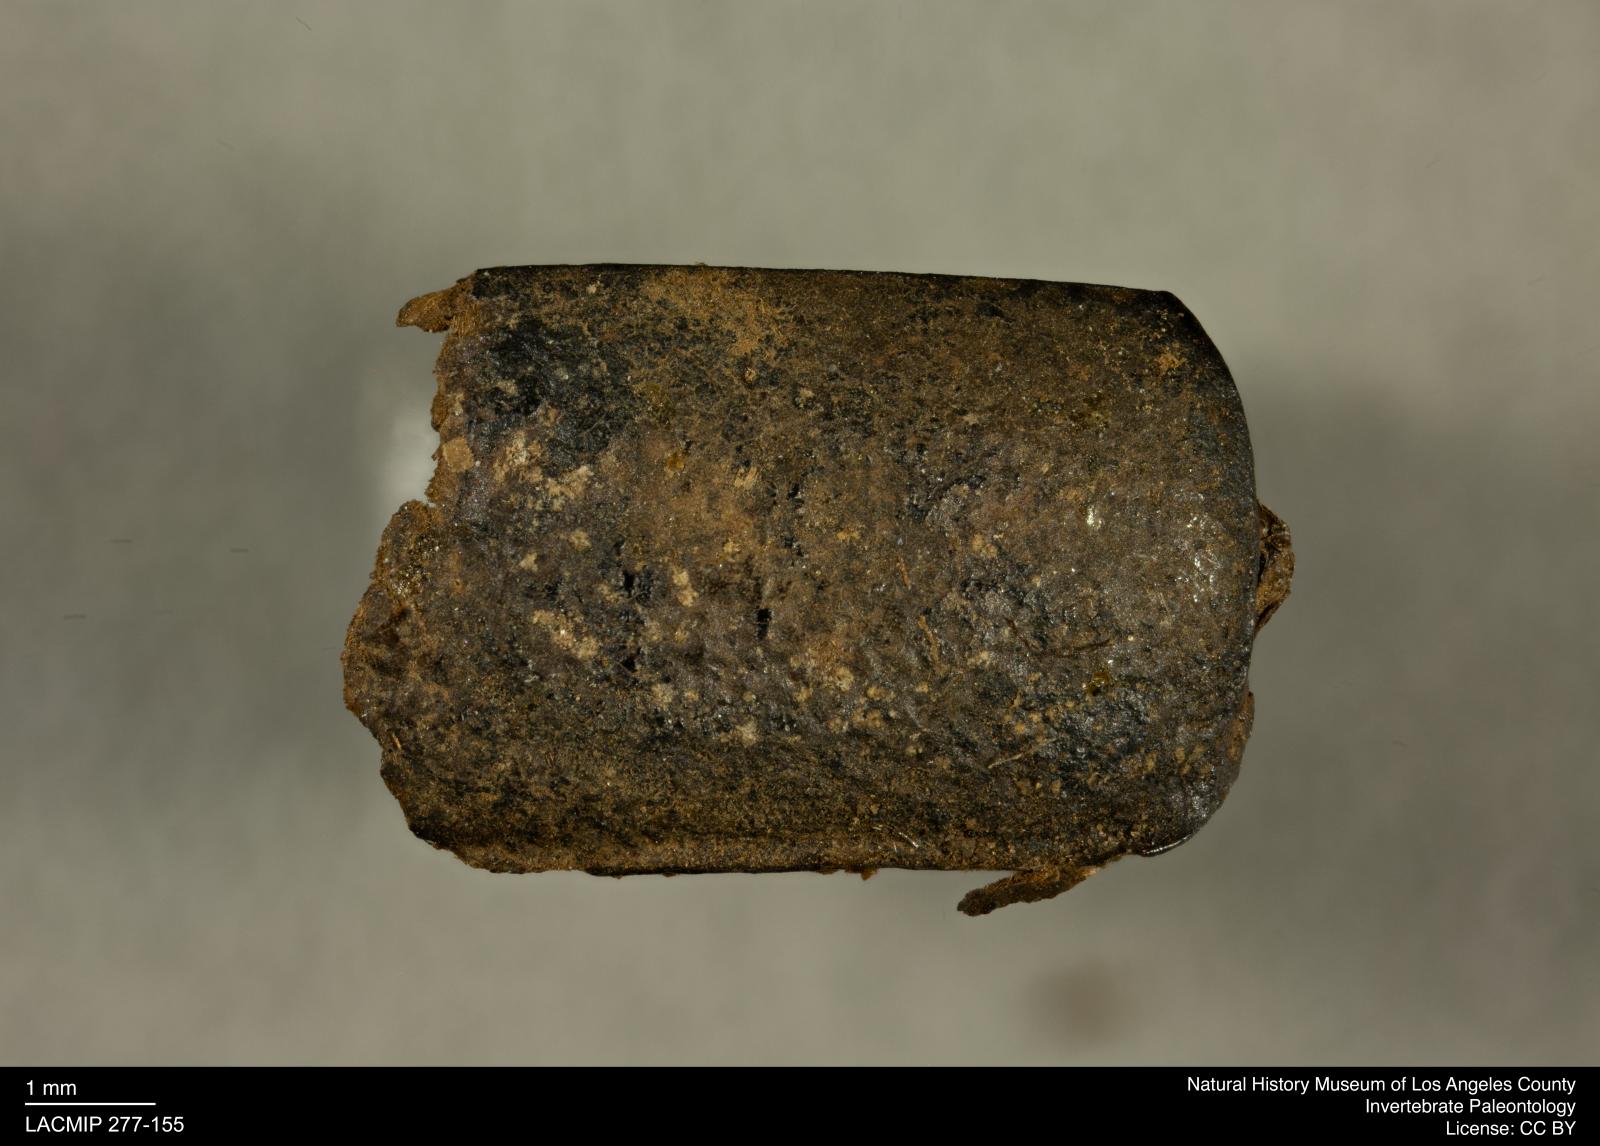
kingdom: Animalia
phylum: Arthropoda
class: Insecta
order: Coleoptera
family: Tenebrionidae
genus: Coniontis
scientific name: Coniontis abdominalis
